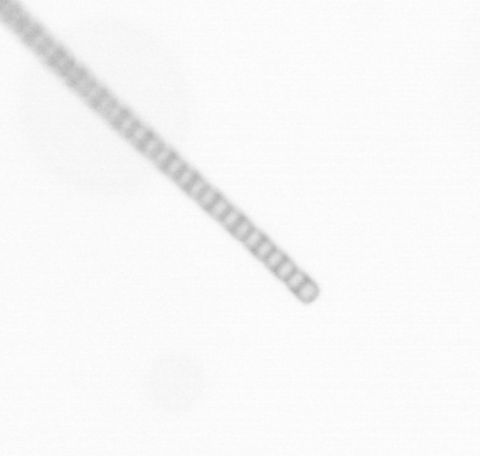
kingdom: Chromista
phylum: Ochrophyta
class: Bacillariophyceae
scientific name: Bacillariophyceae
